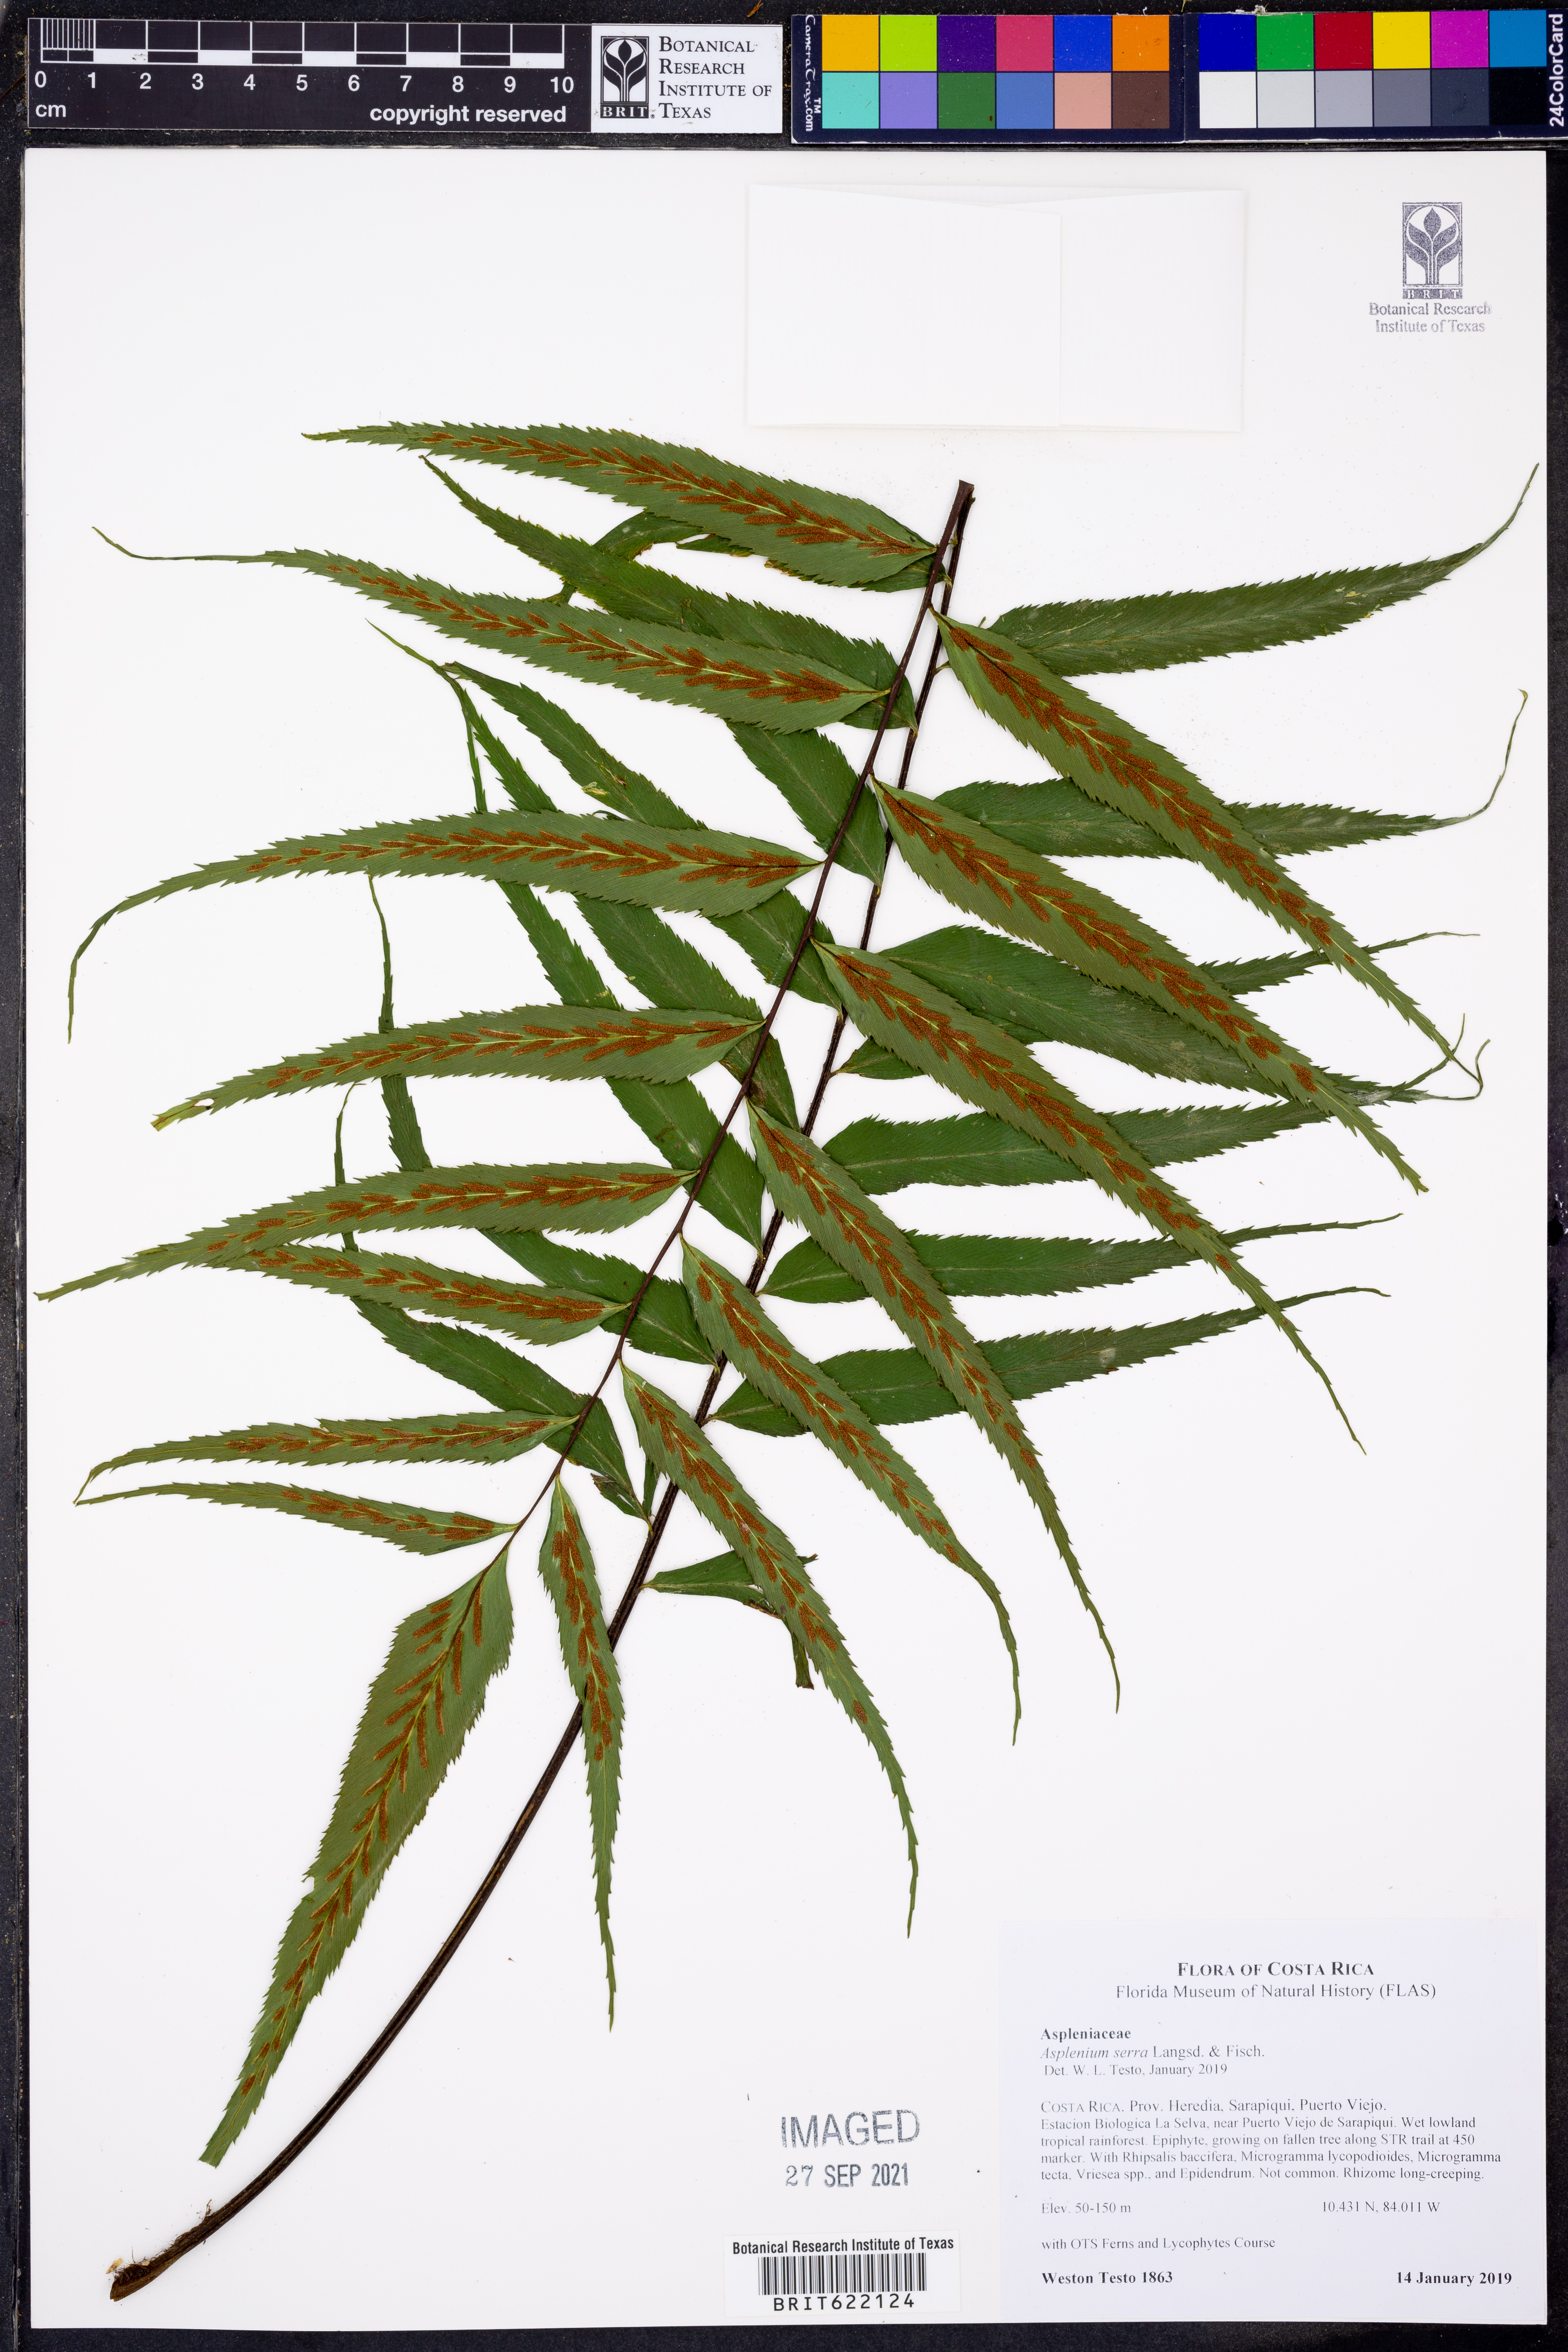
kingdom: Plantae
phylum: Tracheophyta
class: Polypodiopsida
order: Polypodiales
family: Aspleniaceae
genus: Asplenium
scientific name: Asplenium serra
